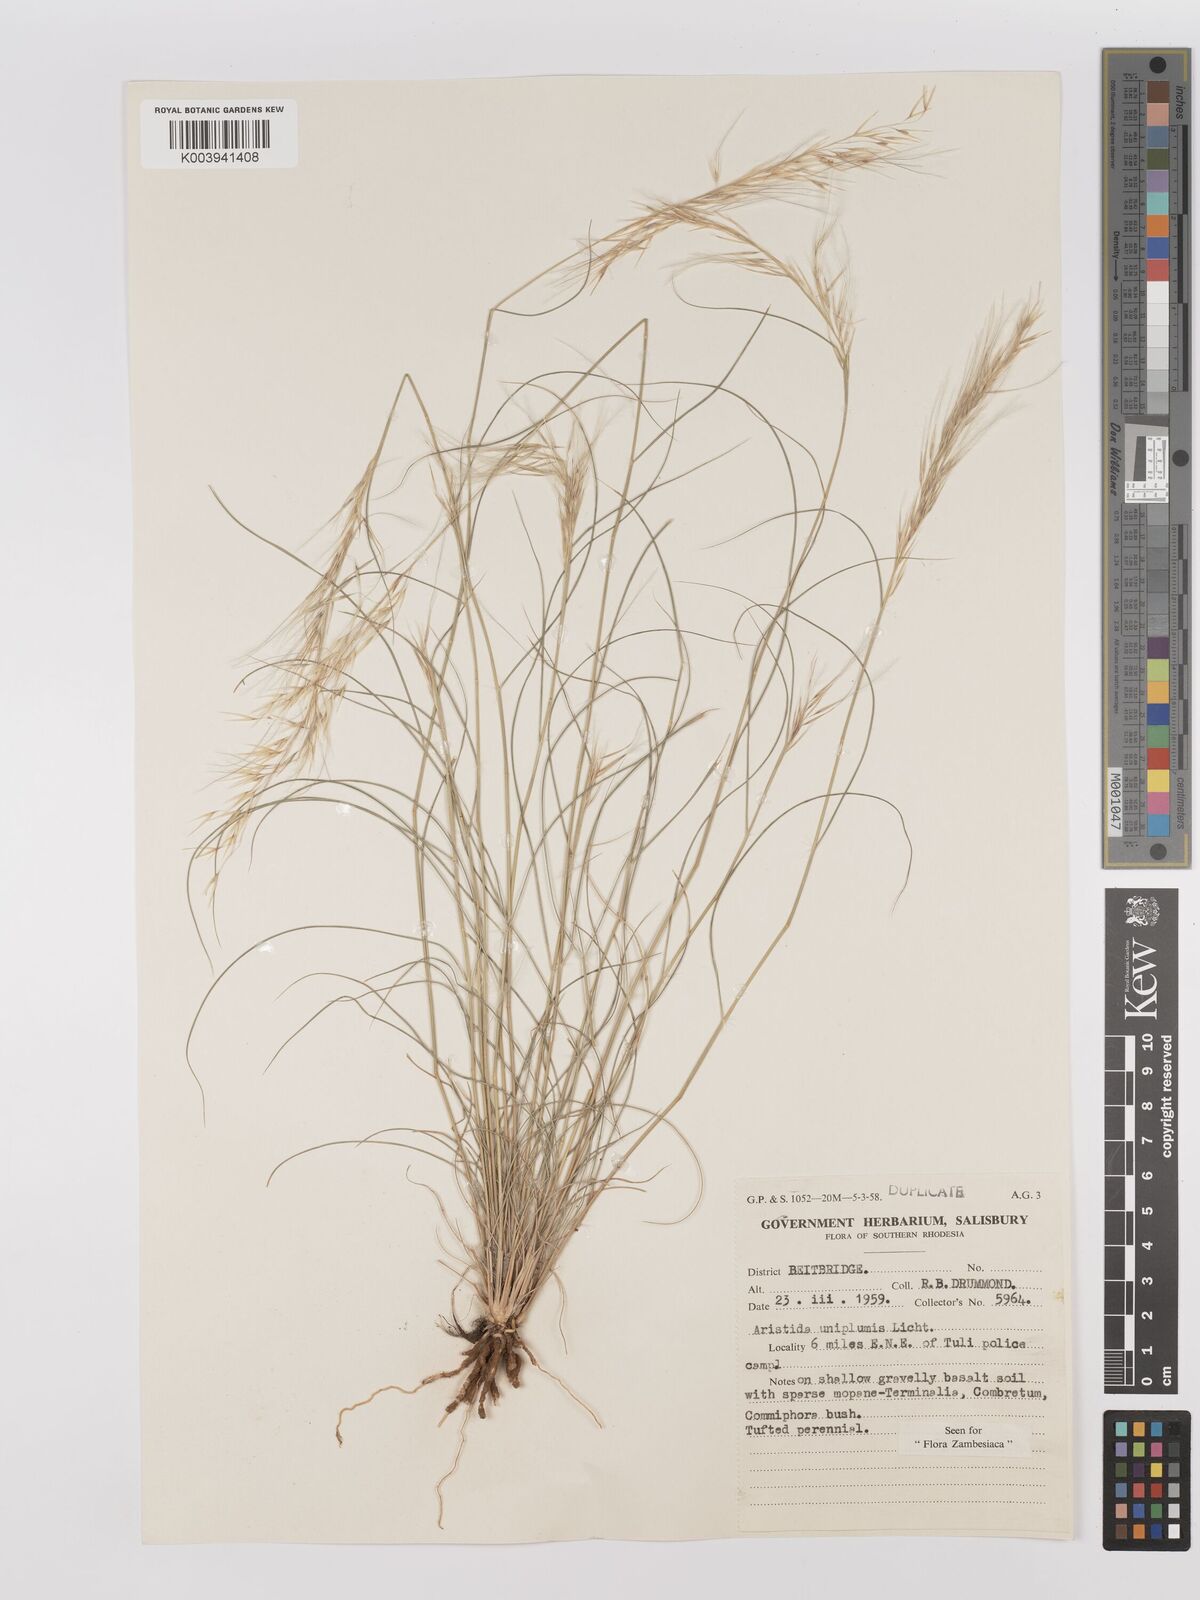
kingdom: Plantae
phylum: Tracheophyta
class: Liliopsida
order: Poales
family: Poaceae
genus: Stipagrostis
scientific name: Stipagrostis uniplumis
